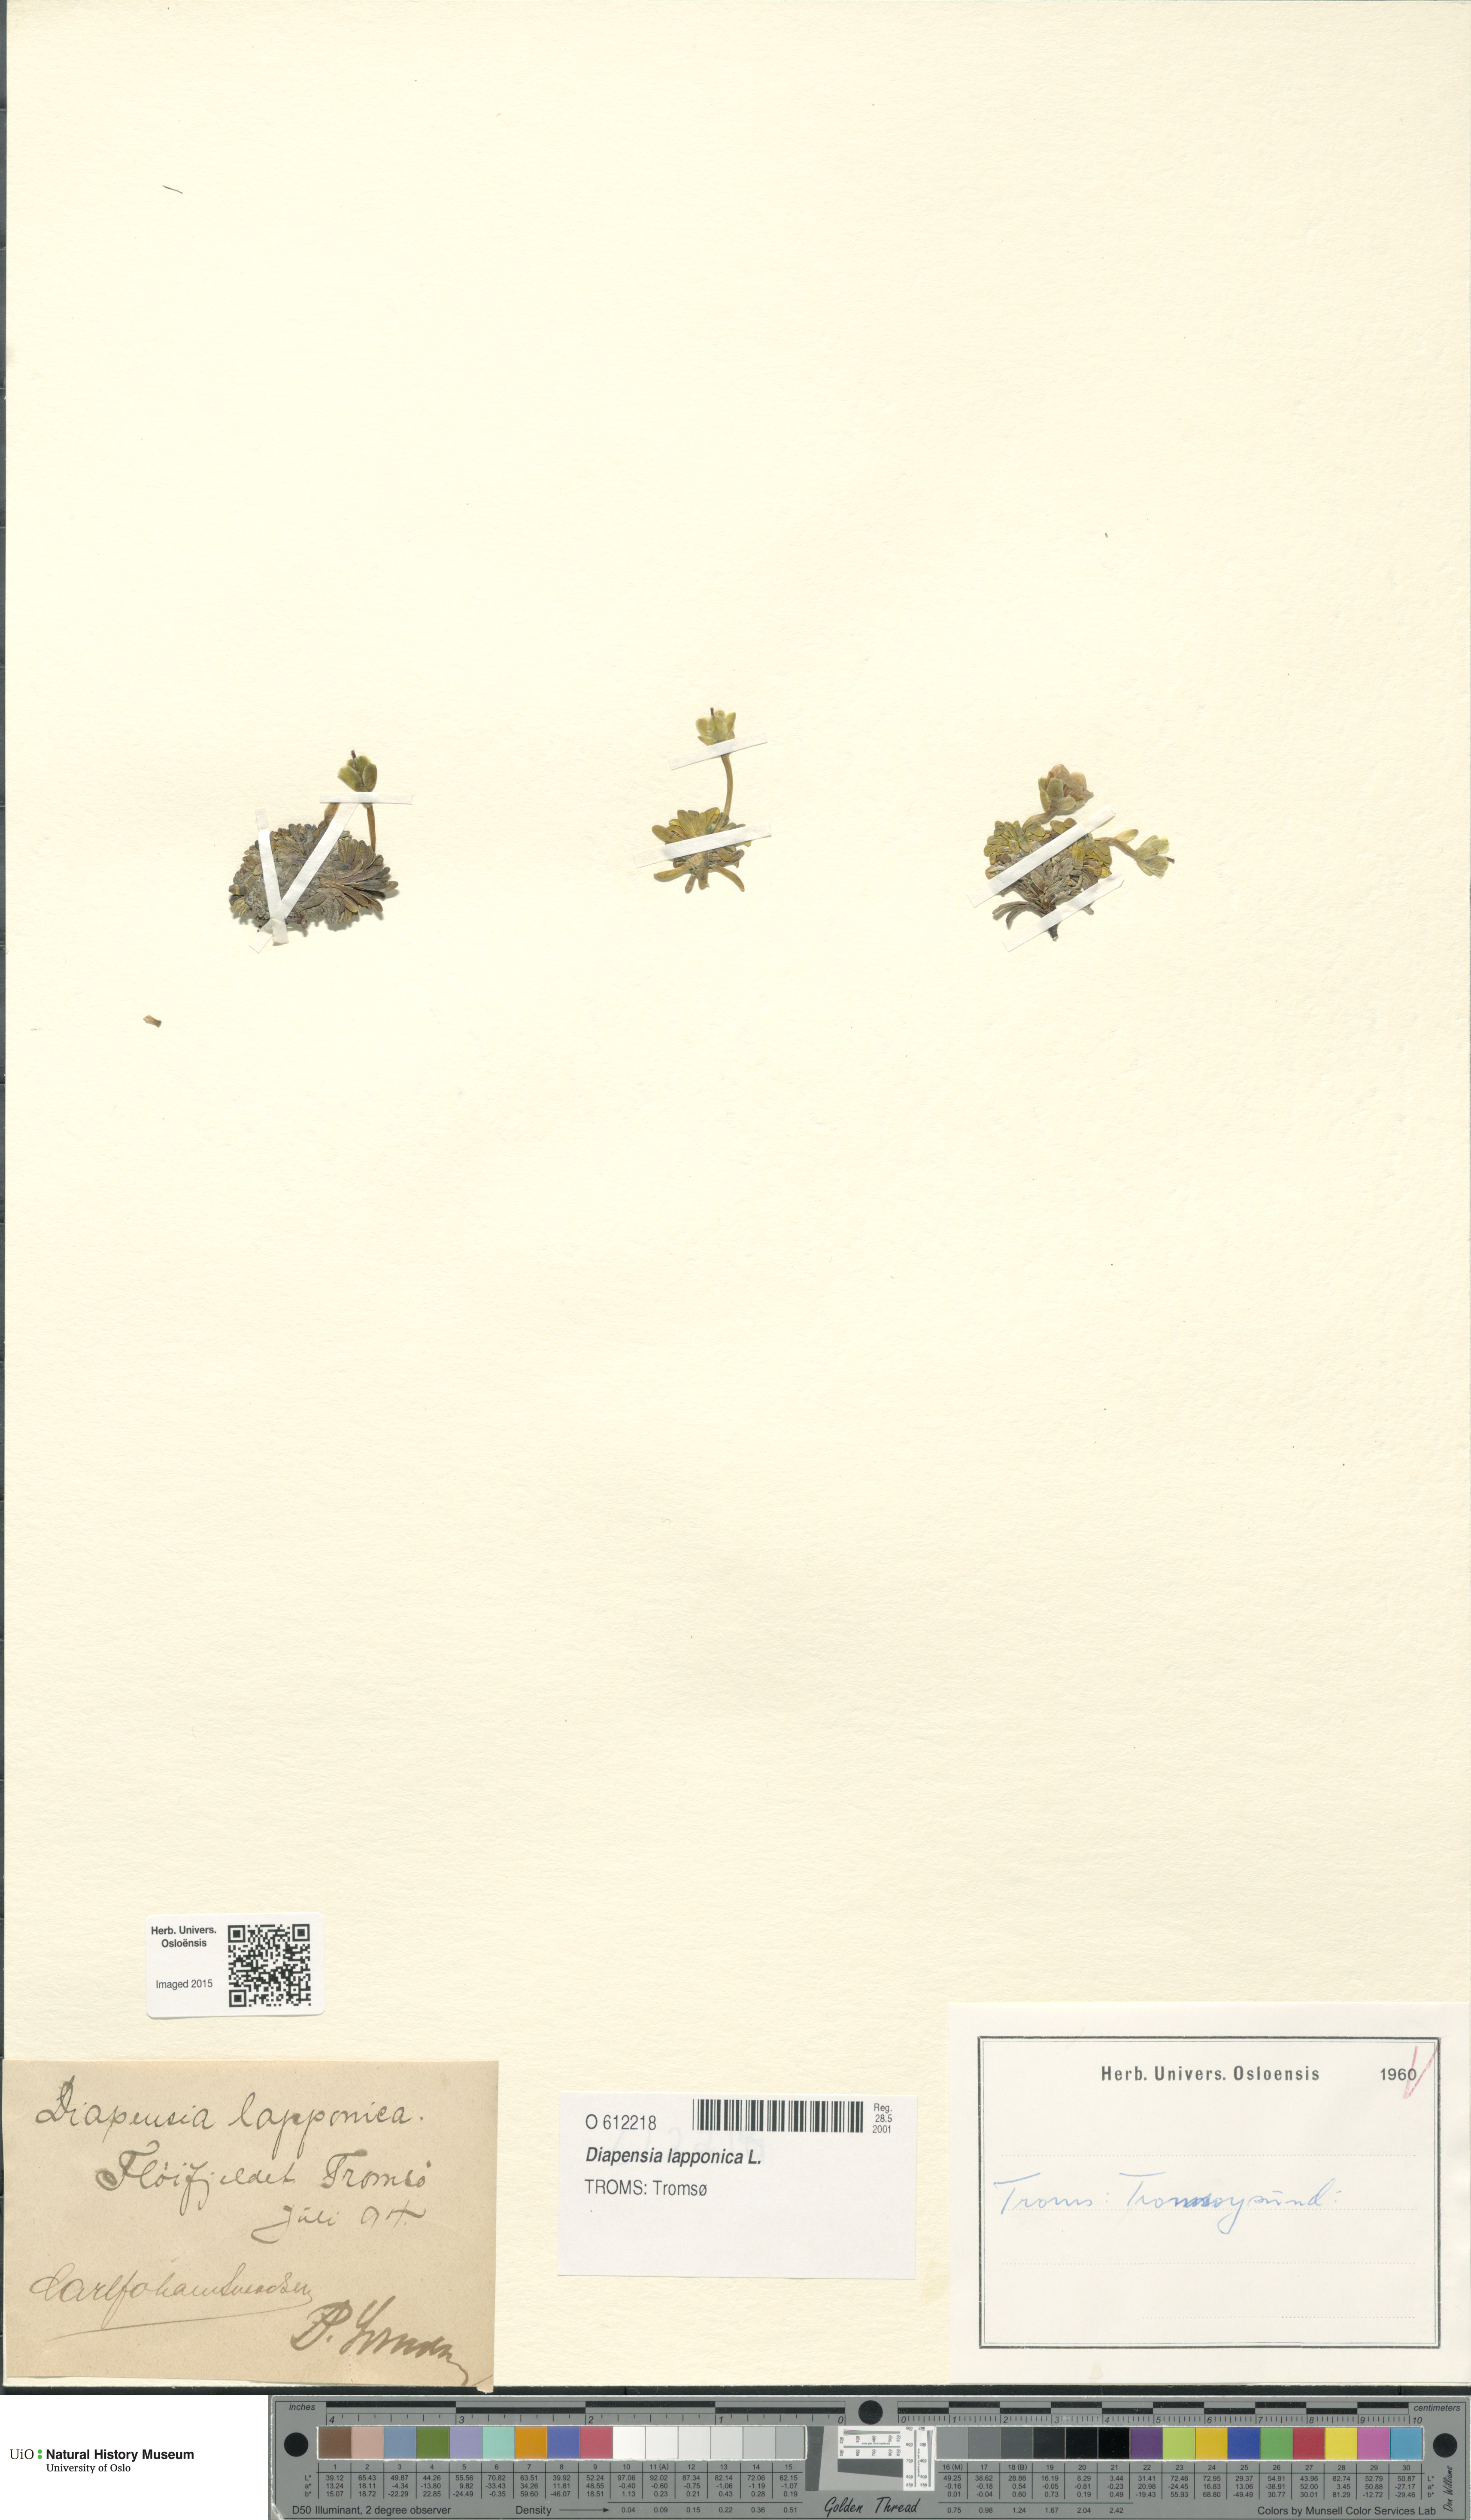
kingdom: Plantae
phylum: Tracheophyta
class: Magnoliopsida
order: Ericales
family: Diapensiaceae
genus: Diapensia
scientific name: Diapensia lapponica
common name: Diapensia
